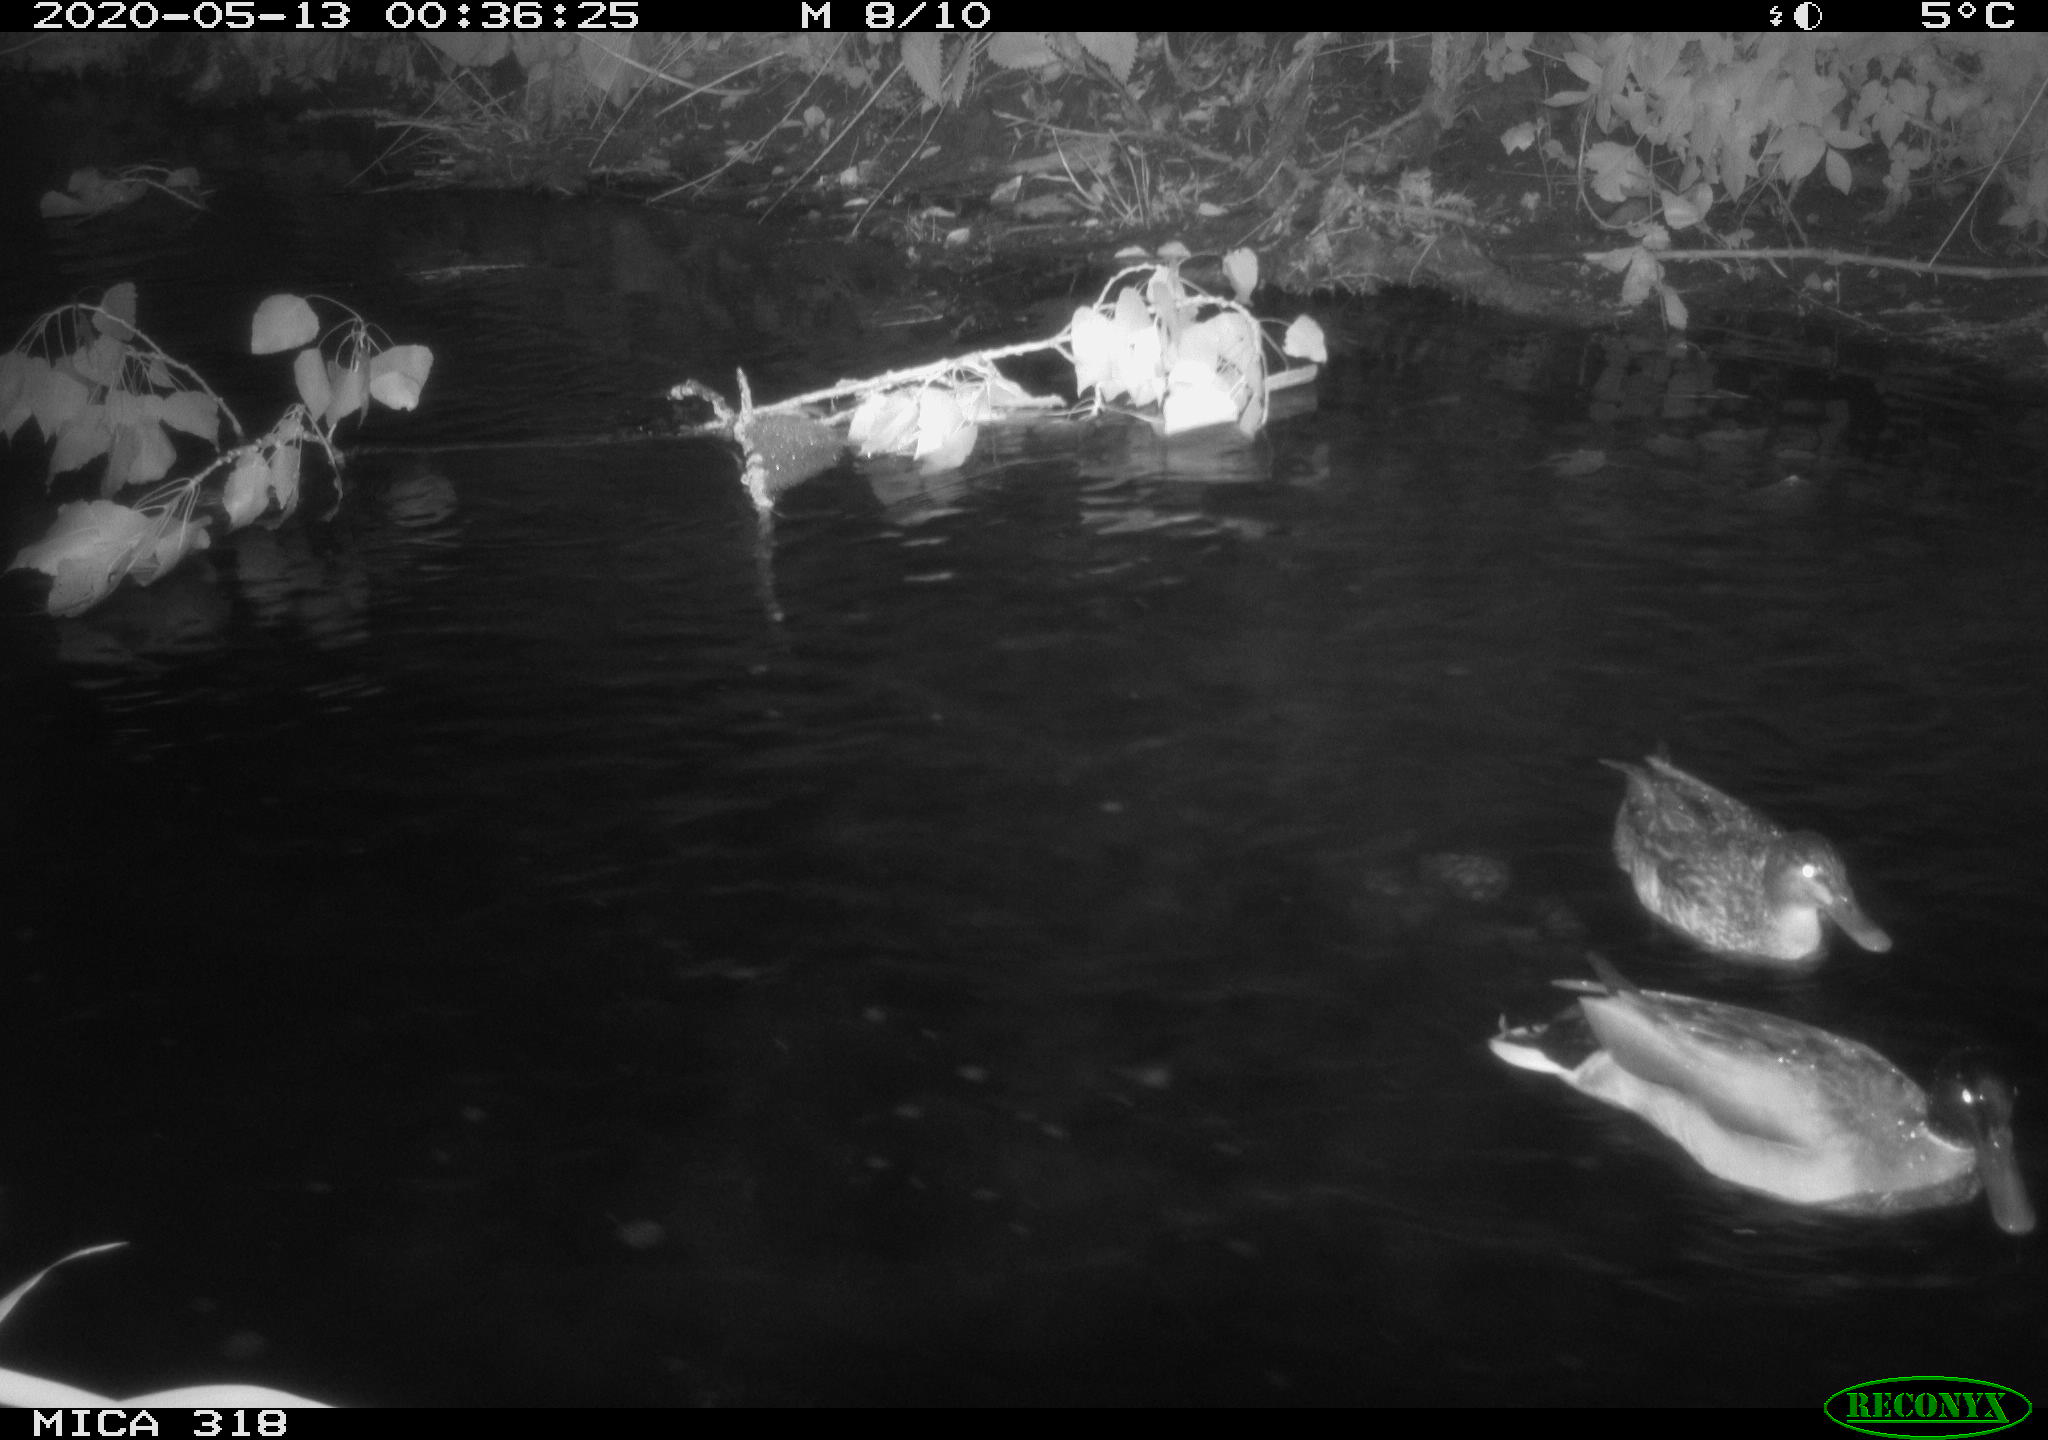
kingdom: Animalia
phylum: Chordata
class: Aves
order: Anseriformes
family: Anatidae
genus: Anas
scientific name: Anas platyrhynchos
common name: Mallard
